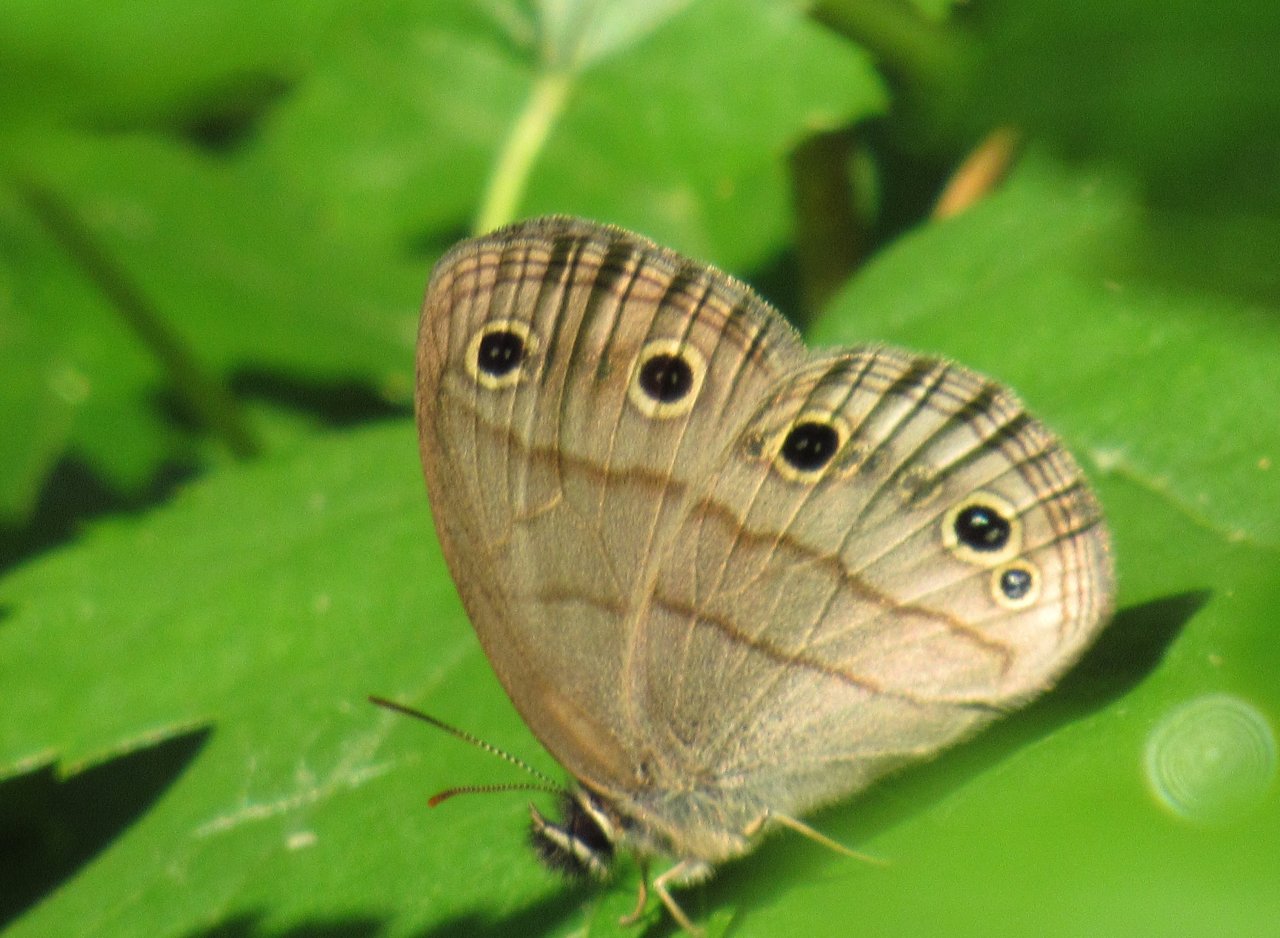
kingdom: Animalia
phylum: Arthropoda
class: Insecta
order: Lepidoptera
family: Nymphalidae
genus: Euptychia
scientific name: Euptychia cymela
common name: Little Wood Satyr
